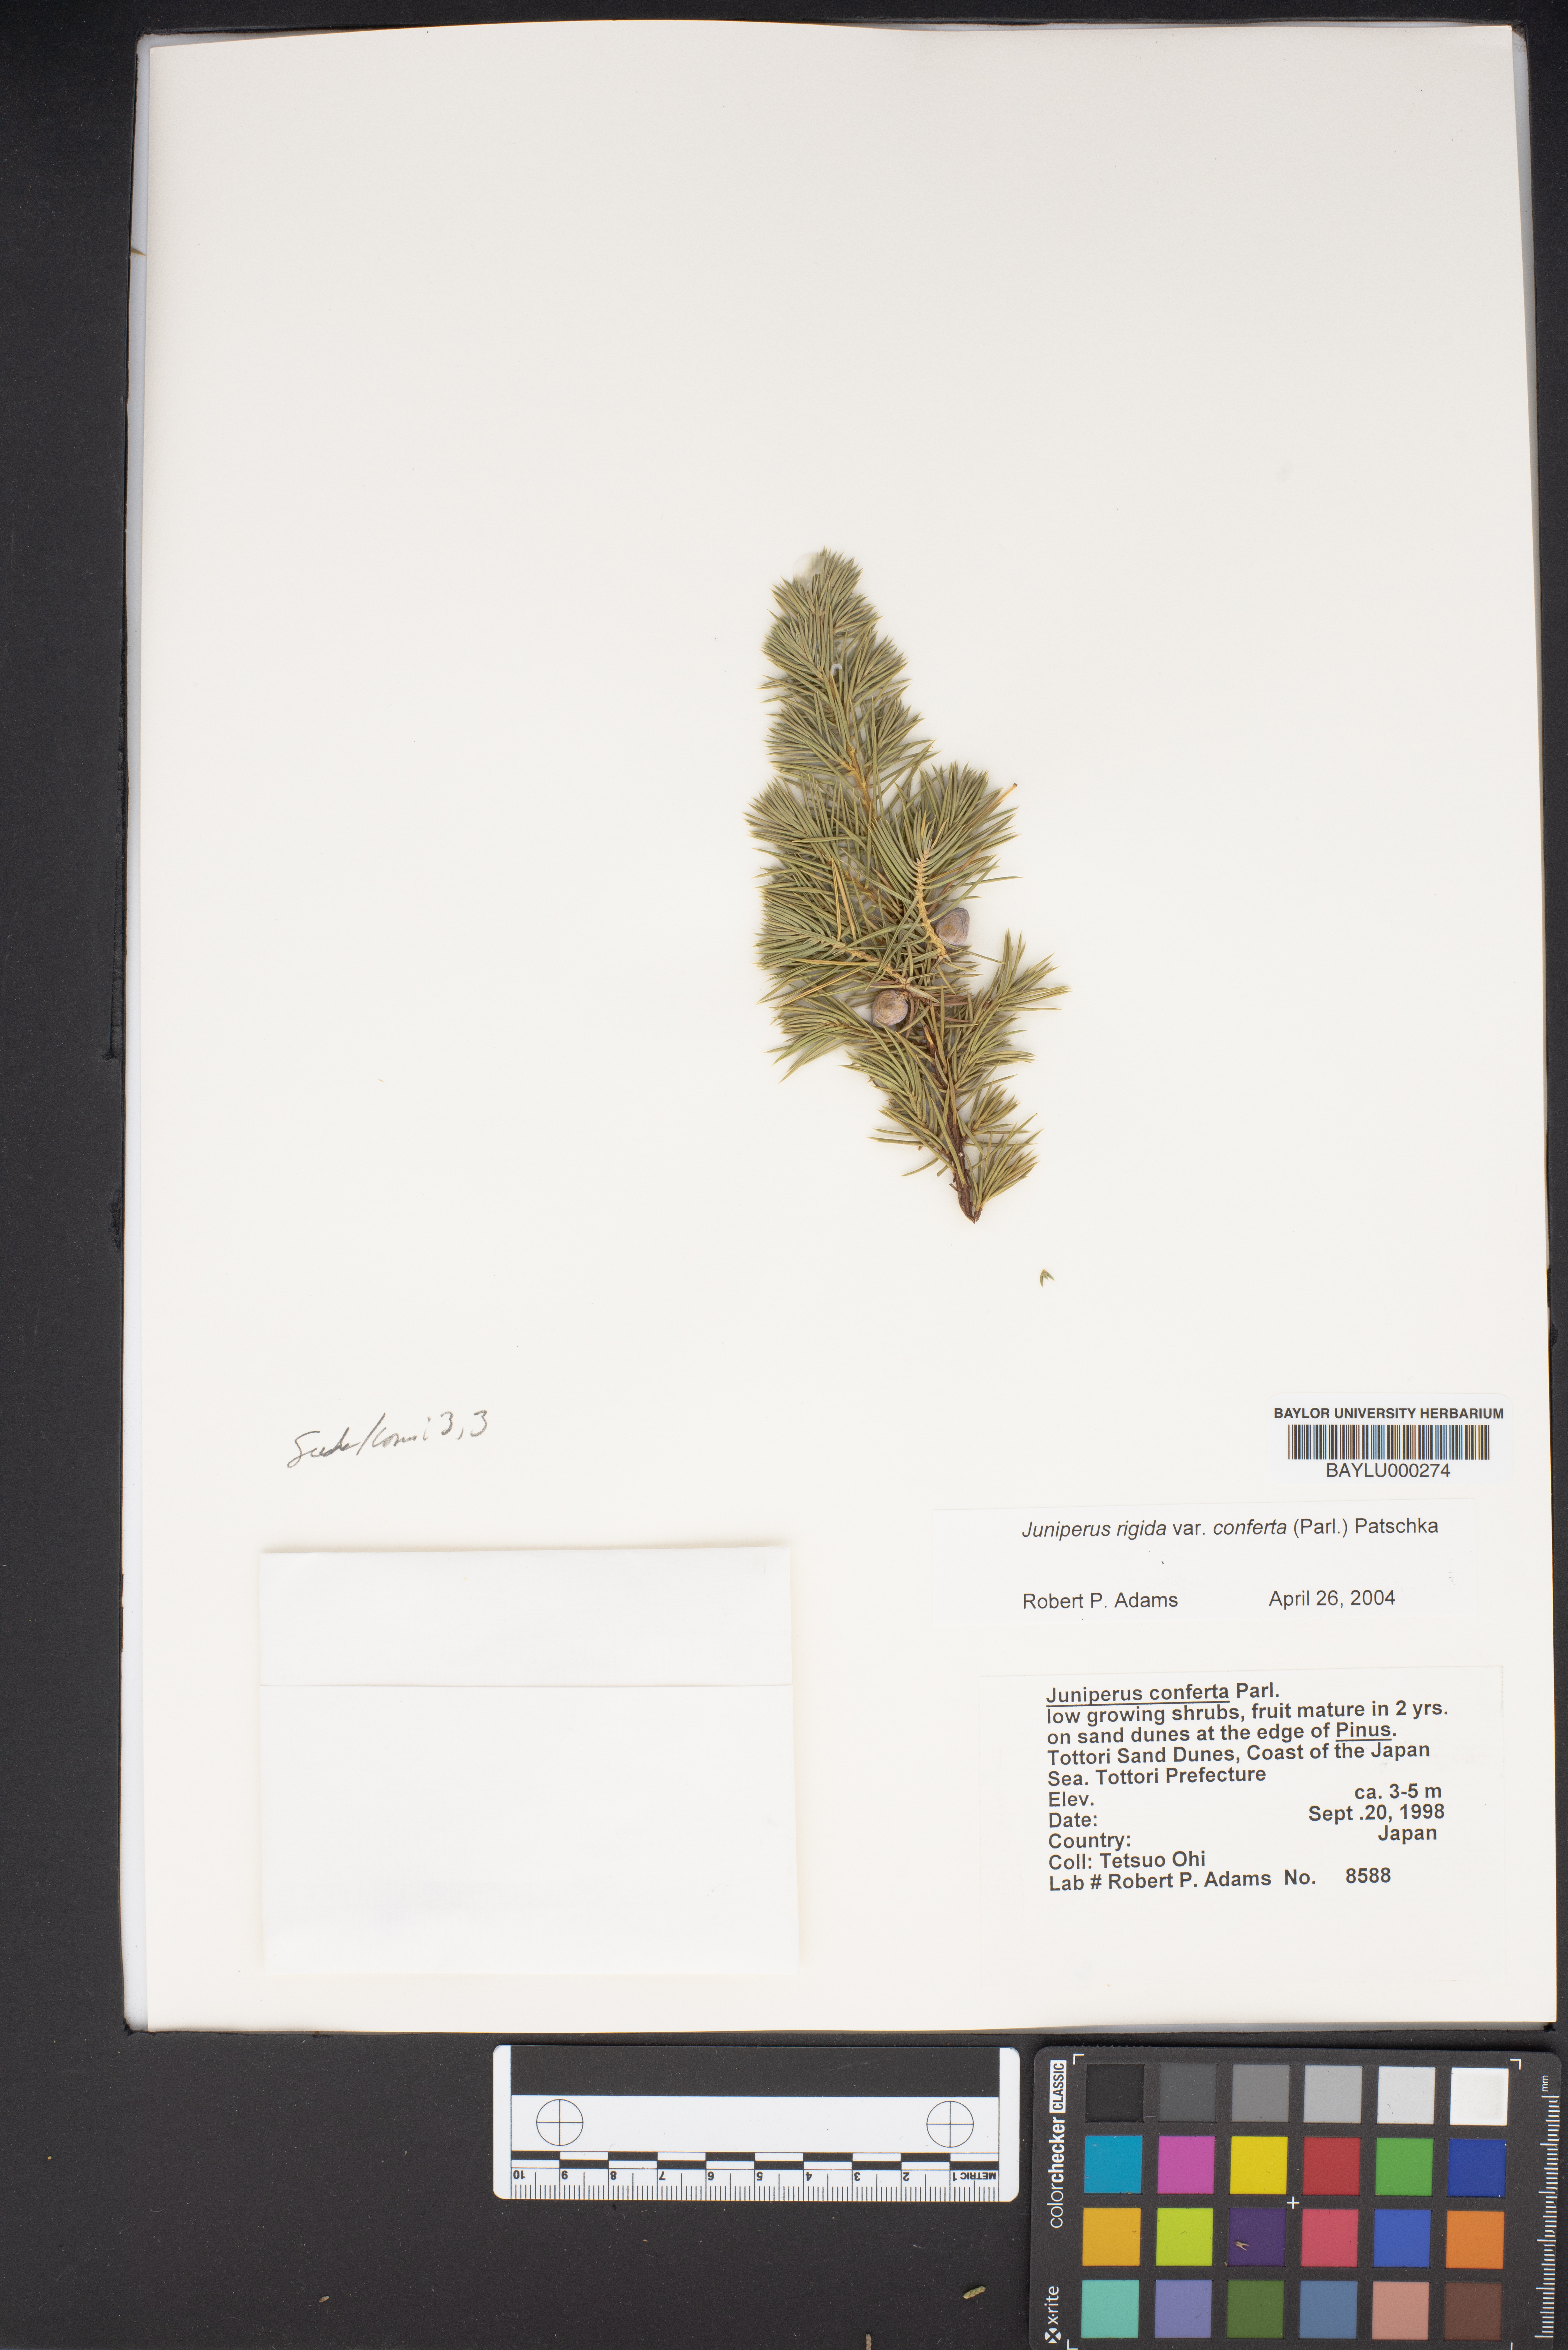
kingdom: Plantae
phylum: Tracheophyta
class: Pinopsida
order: Pinales
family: Cupressaceae
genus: Juniperus
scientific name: Juniperus rigida
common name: Needle juniper
